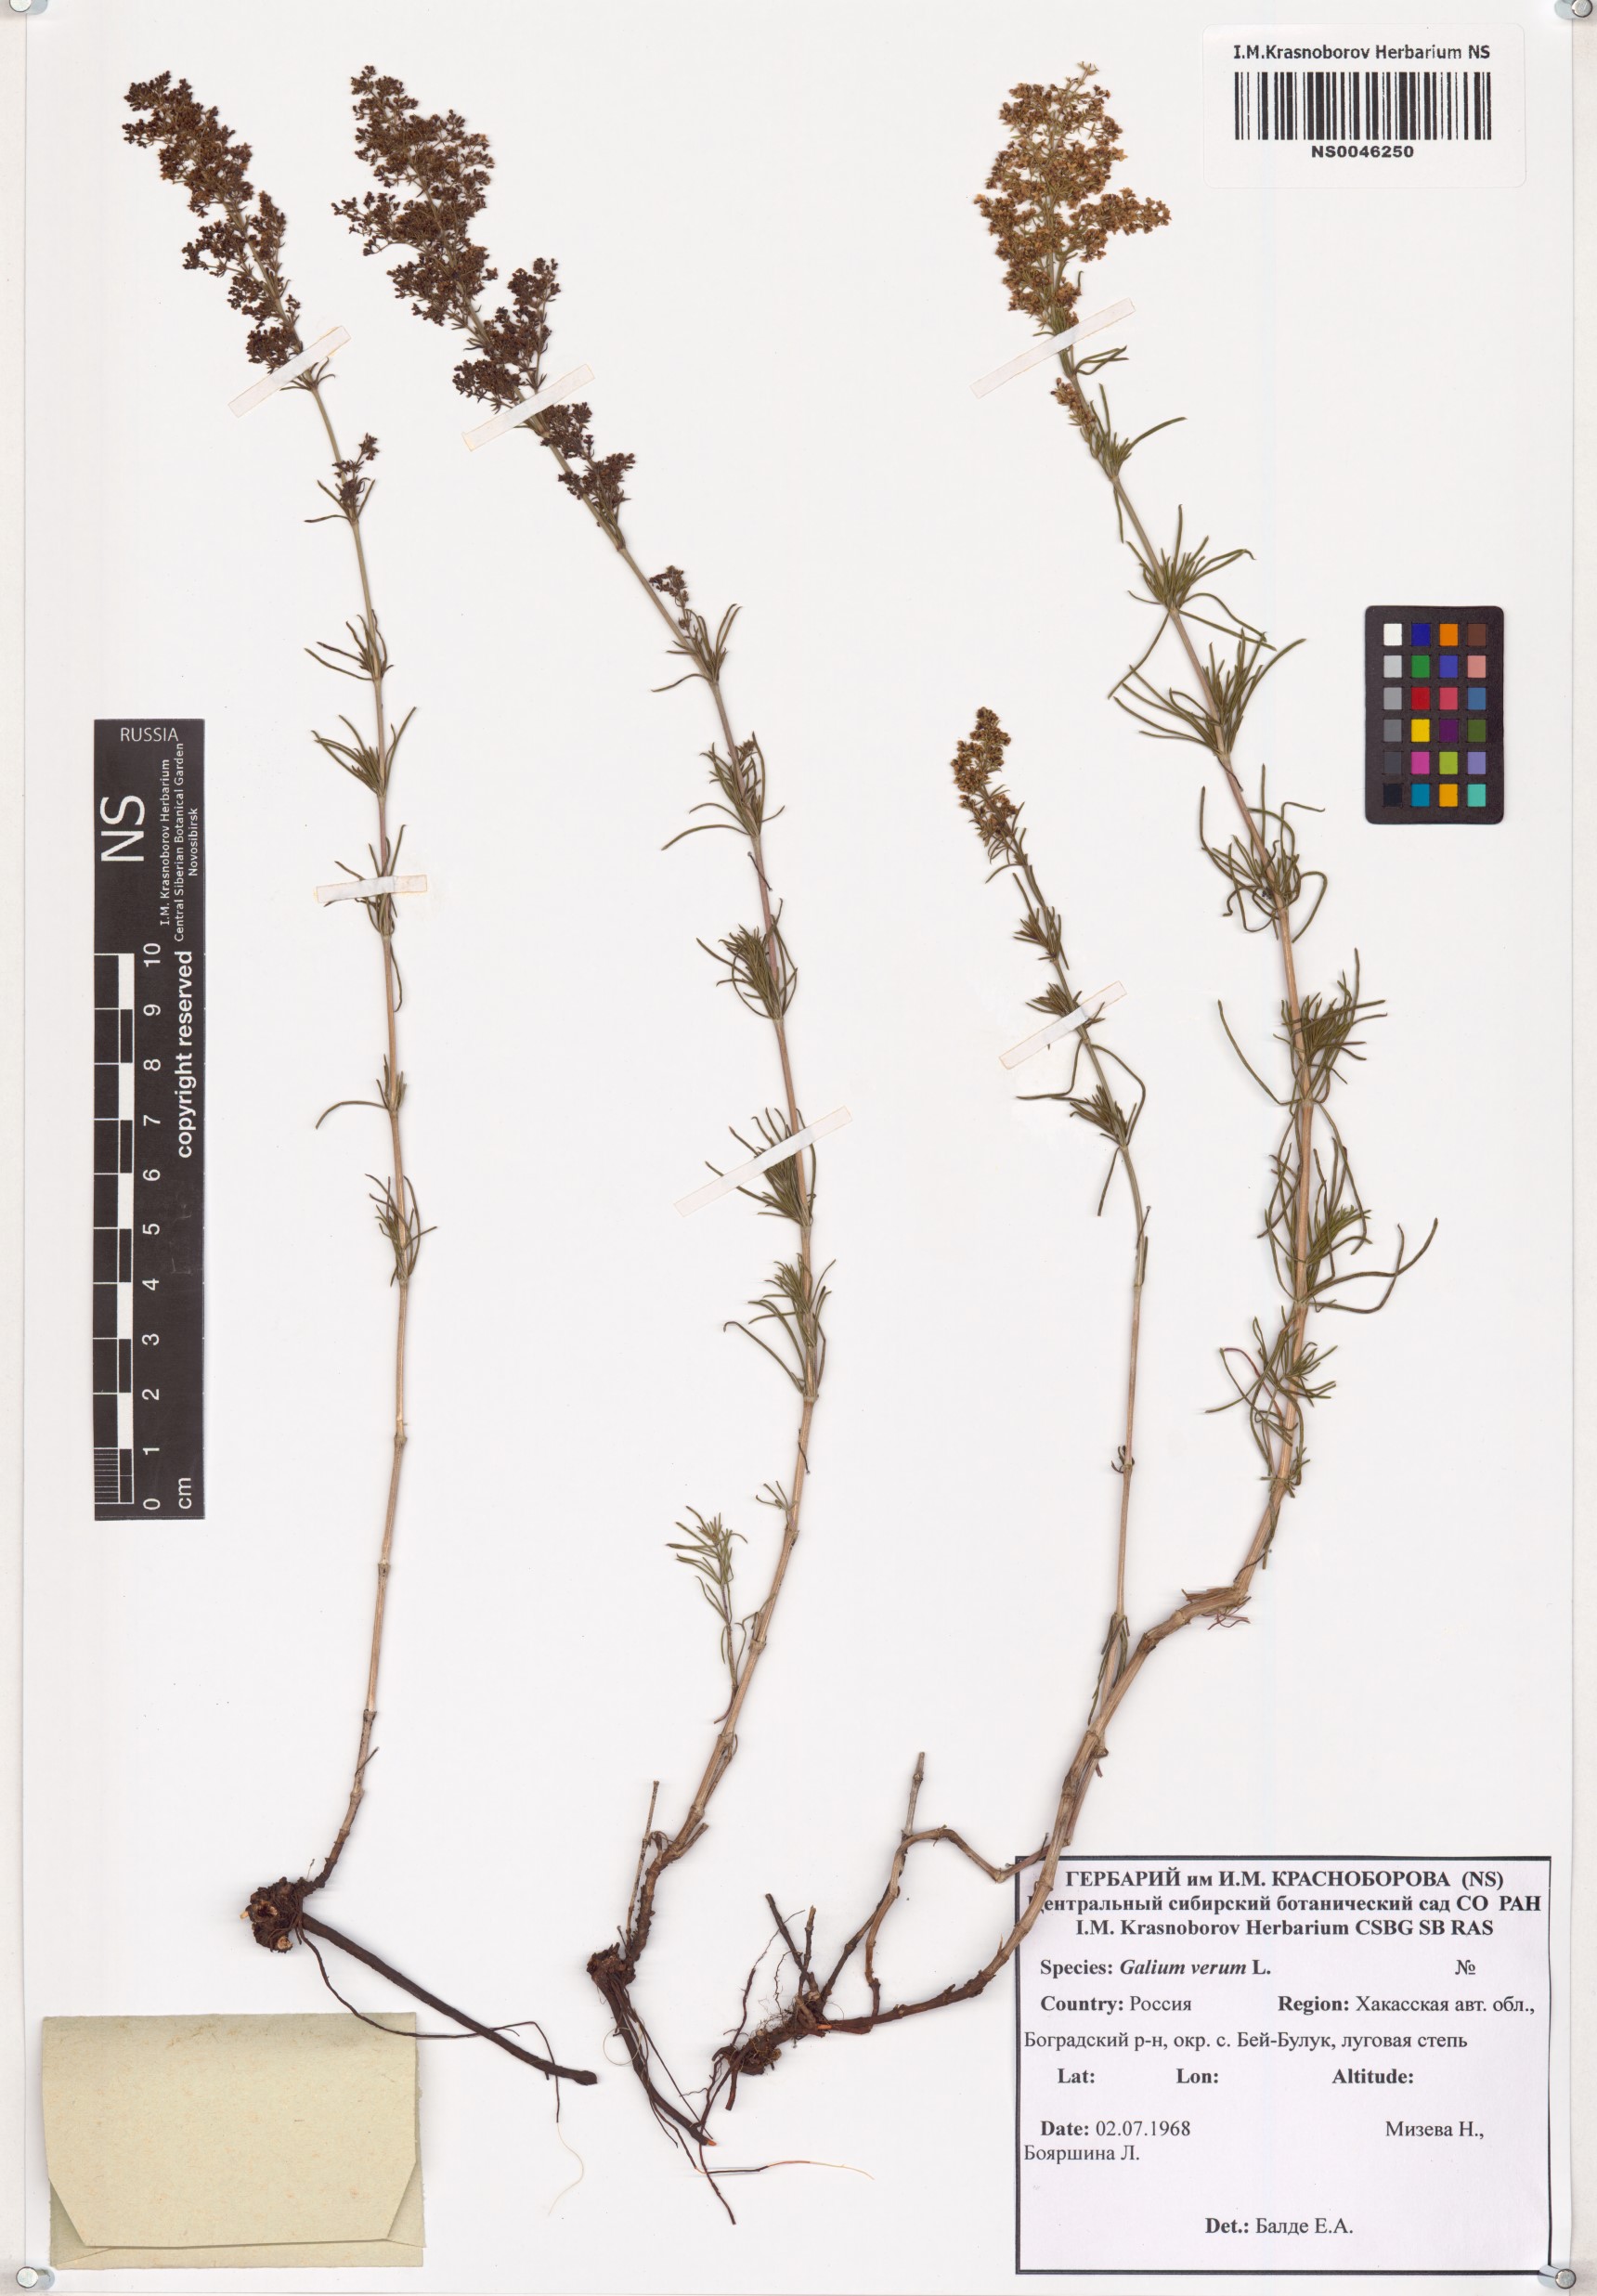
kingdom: Plantae
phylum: Tracheophyta
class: Magnoliopsida
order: Gentianales
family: Rubiaceae
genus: Galium
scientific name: Galium verum
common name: Lady's bedstraw
